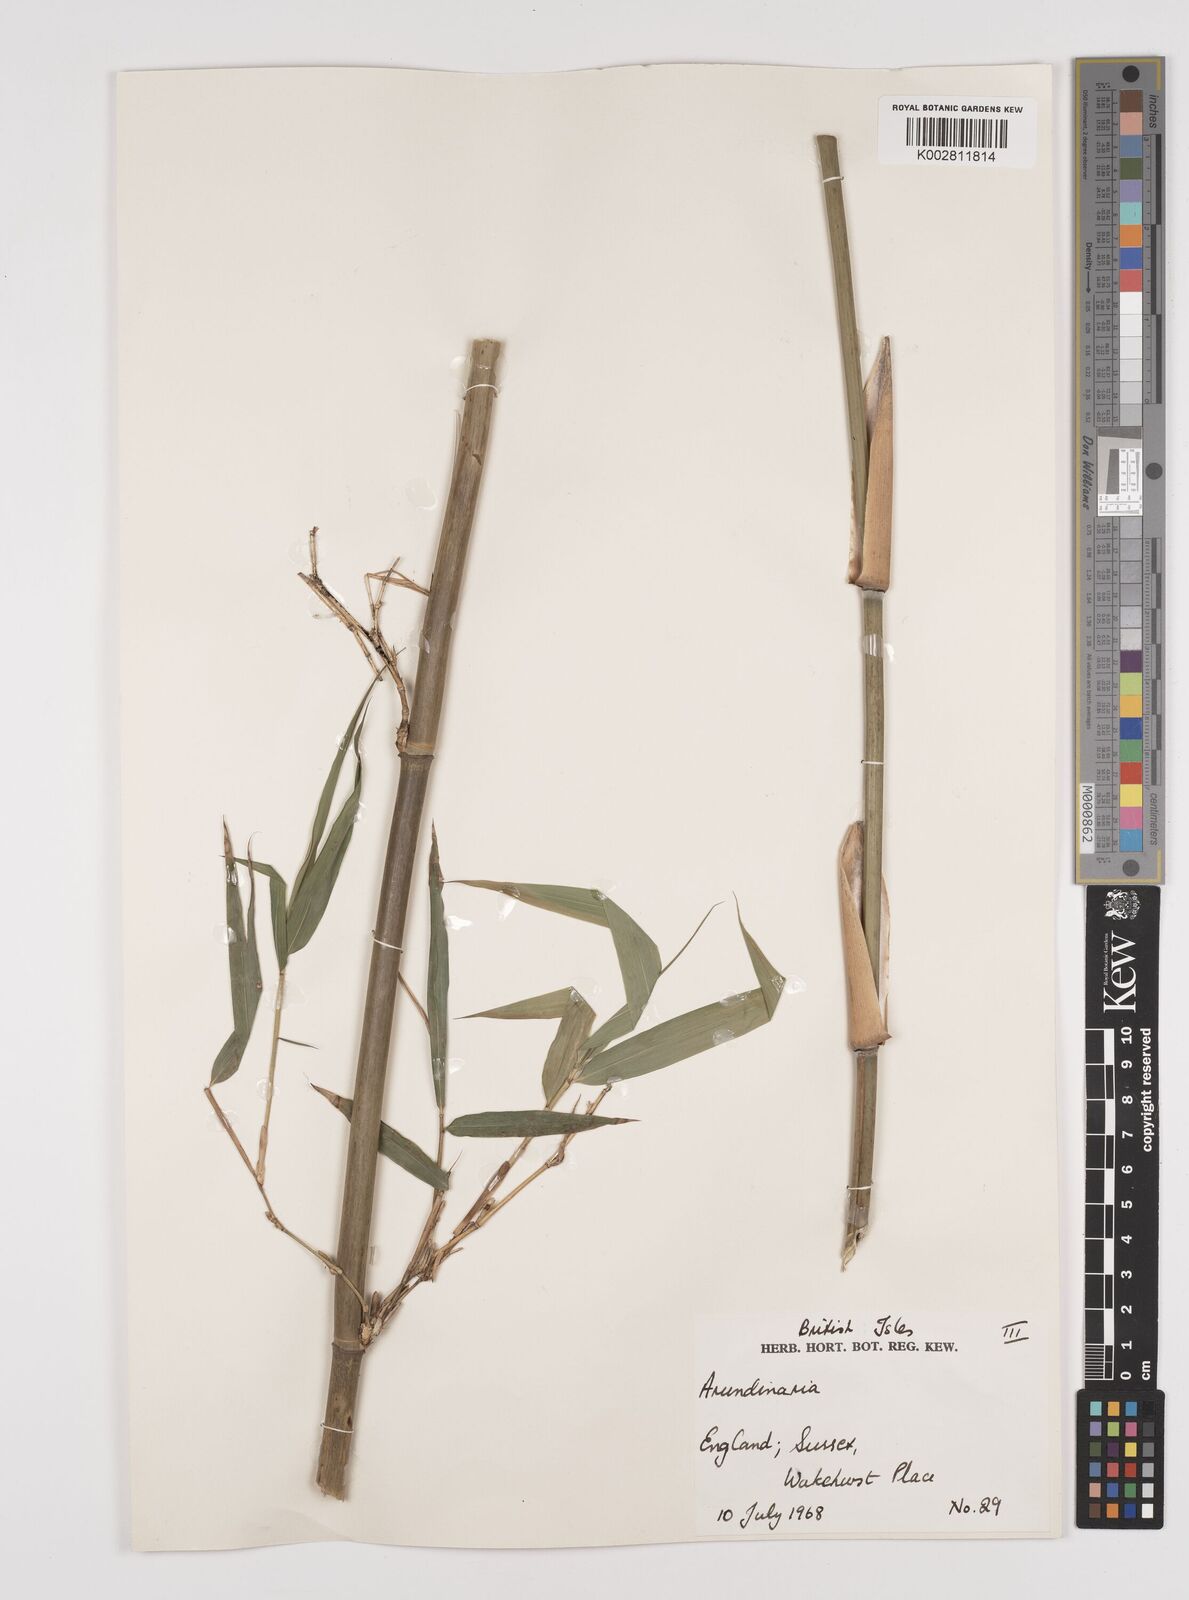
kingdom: Plantae
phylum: Tracheophyta
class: Liliopsida
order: Poales
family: Poaceae
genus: Pleioblastus
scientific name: Pleioblastus simonii
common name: Simon bamboo
